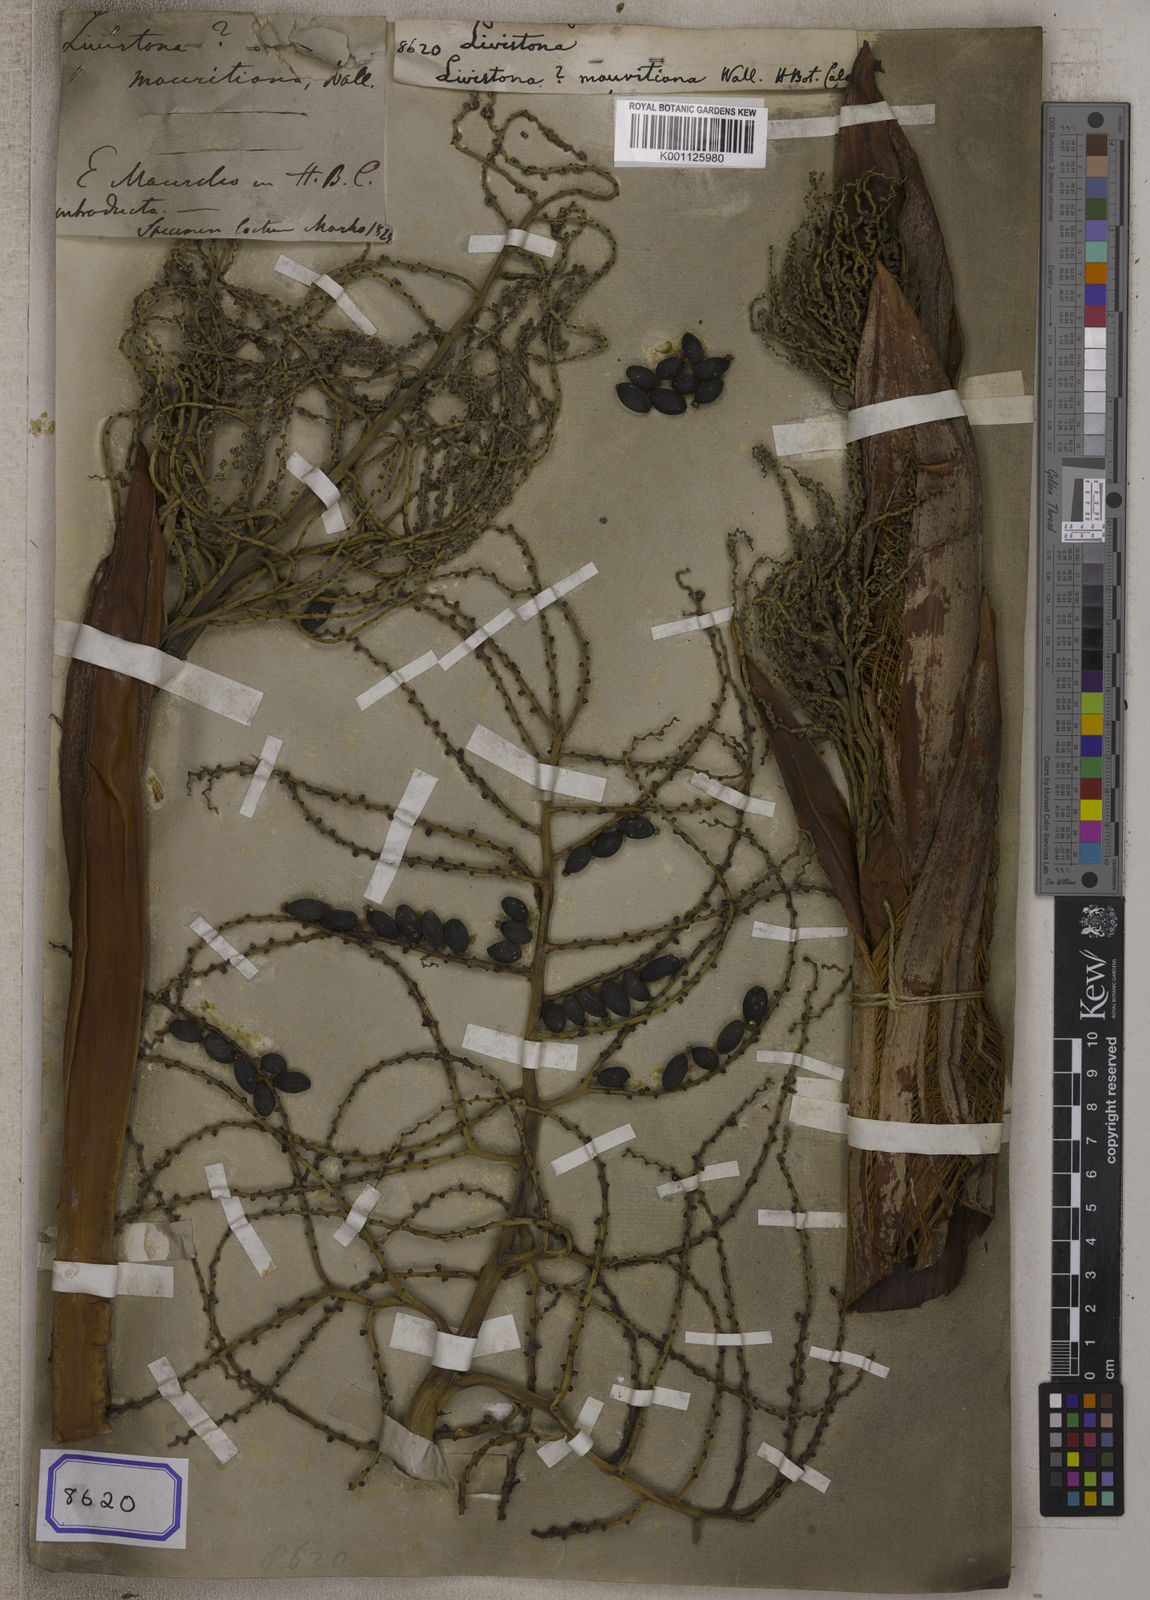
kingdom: Plantae
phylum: Tracheophyta
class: Liliopsida
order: Arecales
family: Arecaceae
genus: Livistona
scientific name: Livistona
